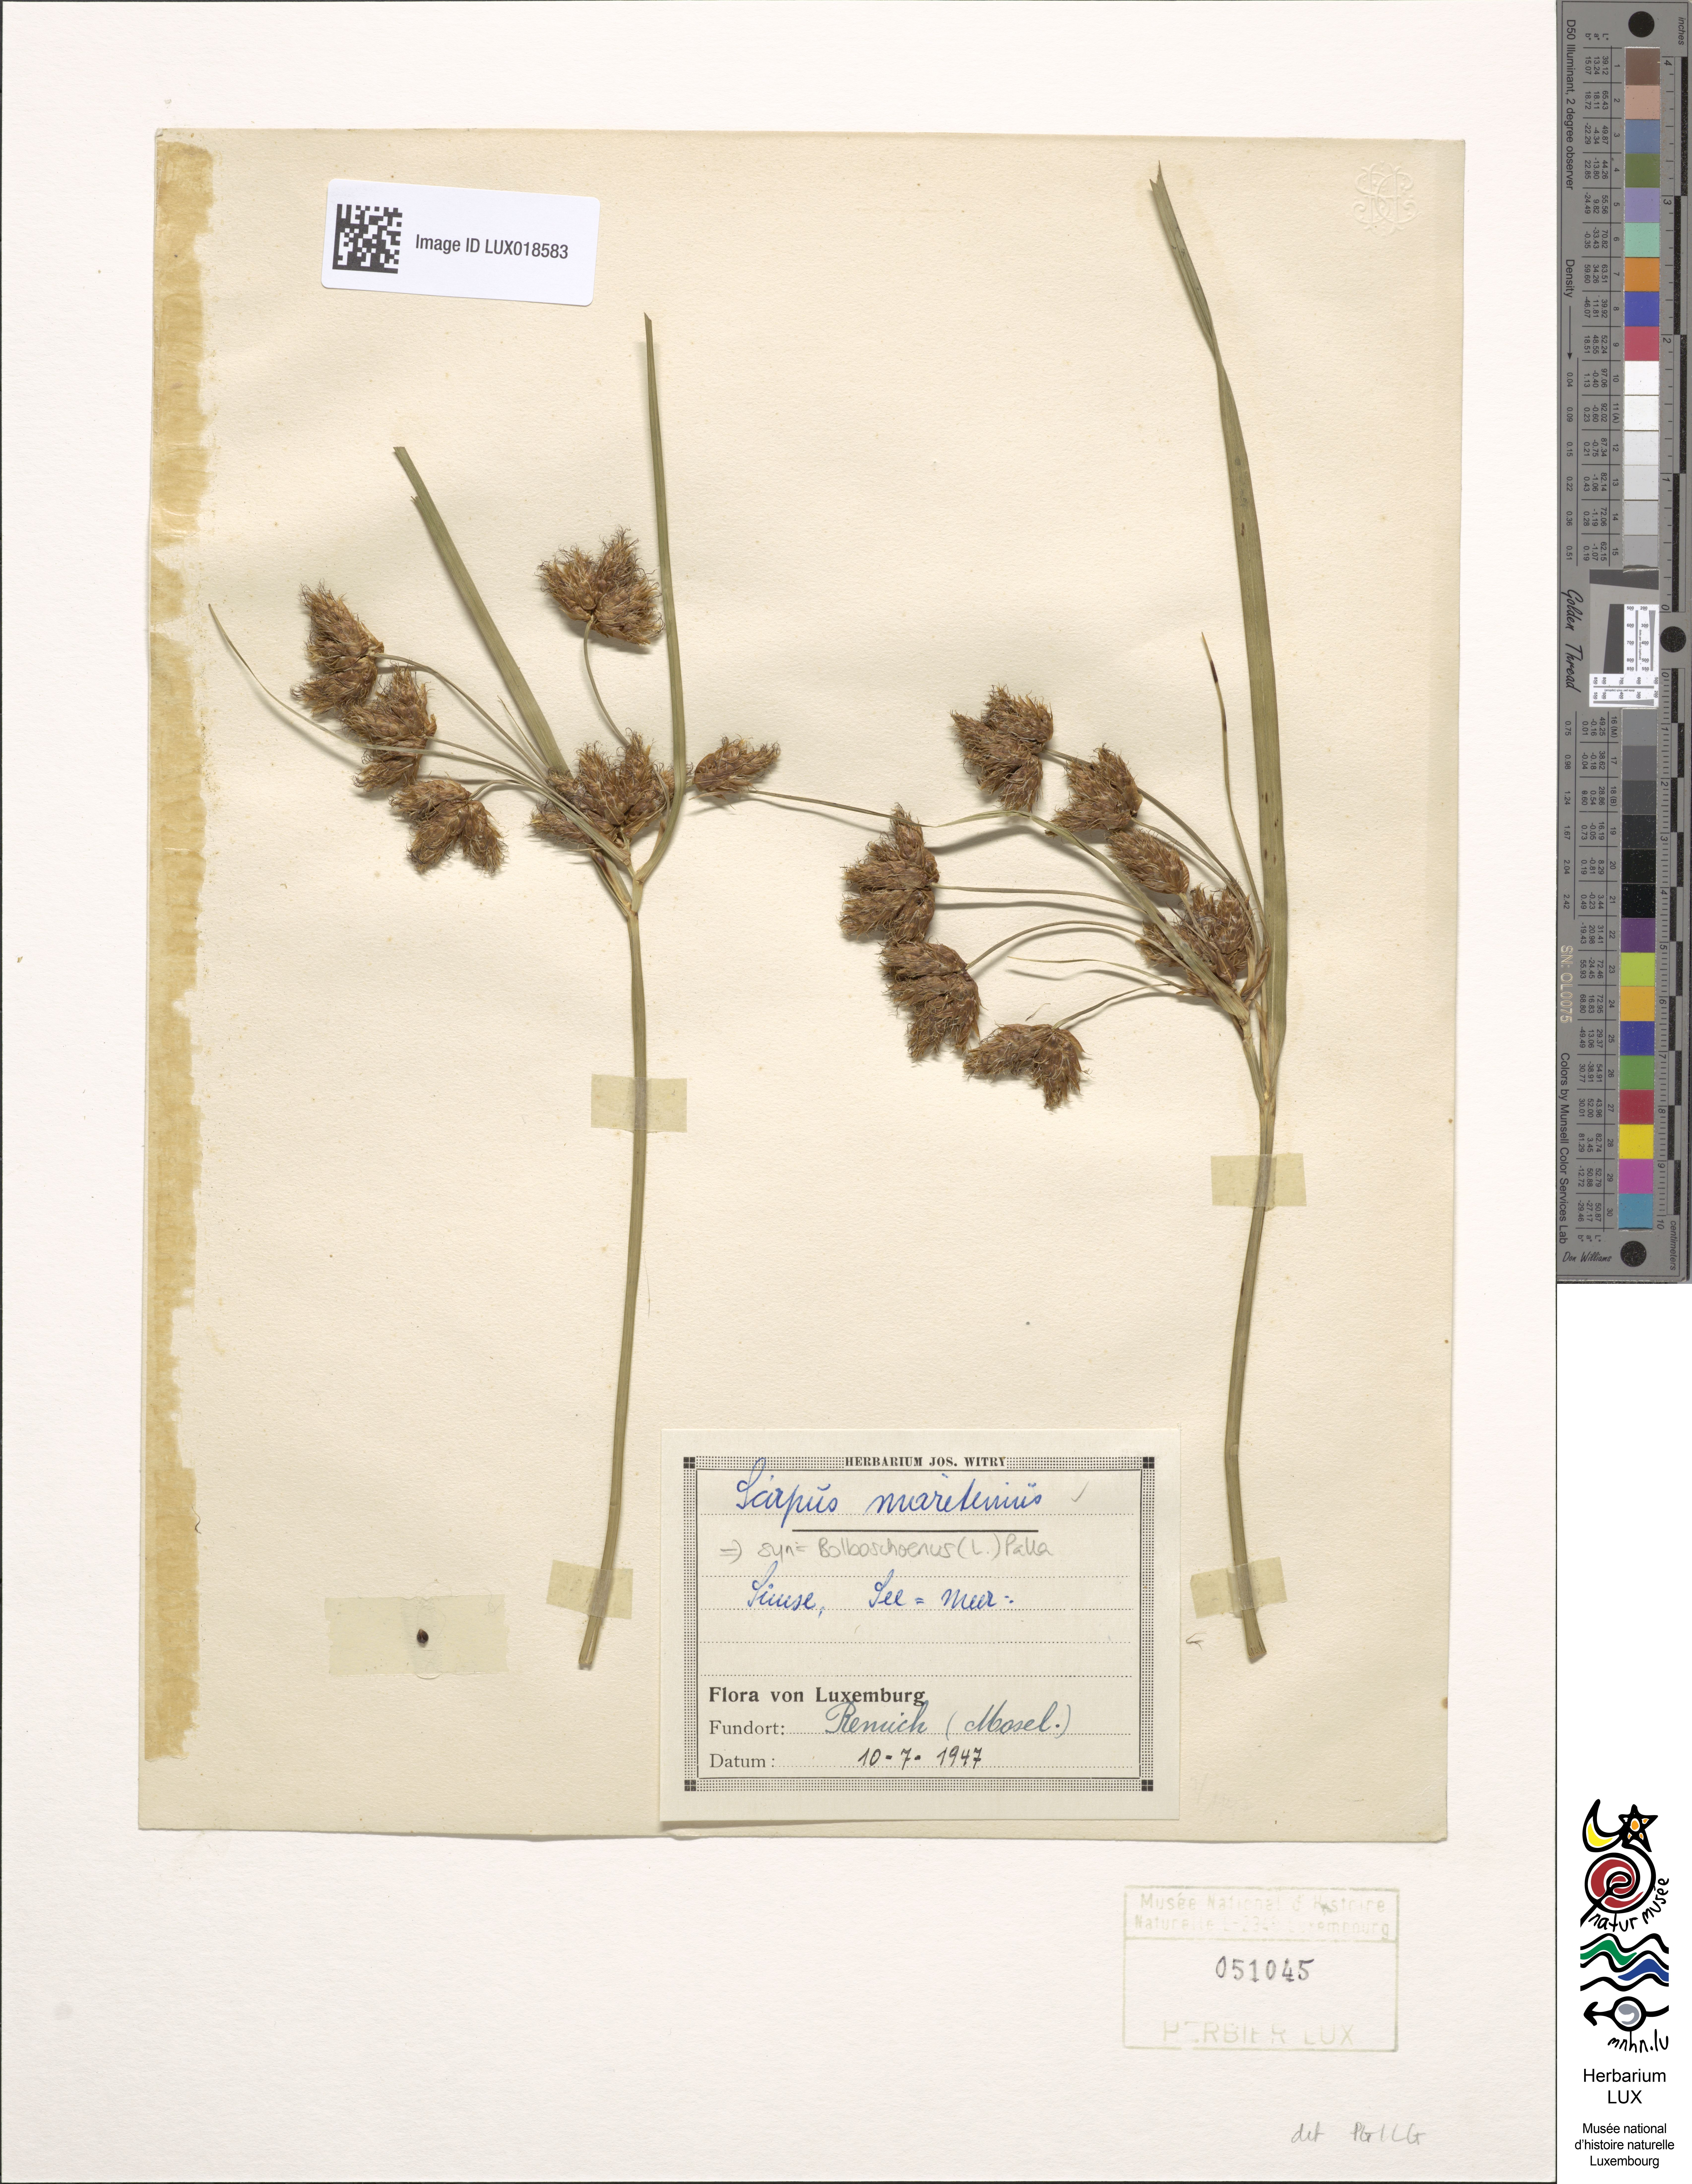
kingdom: Plantae
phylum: Tracheophyta
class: Liliopsida
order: Poales
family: Cyperaceae
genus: Bolboschoenus
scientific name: Bolboschoenus maritimus
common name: Sea club-rush
